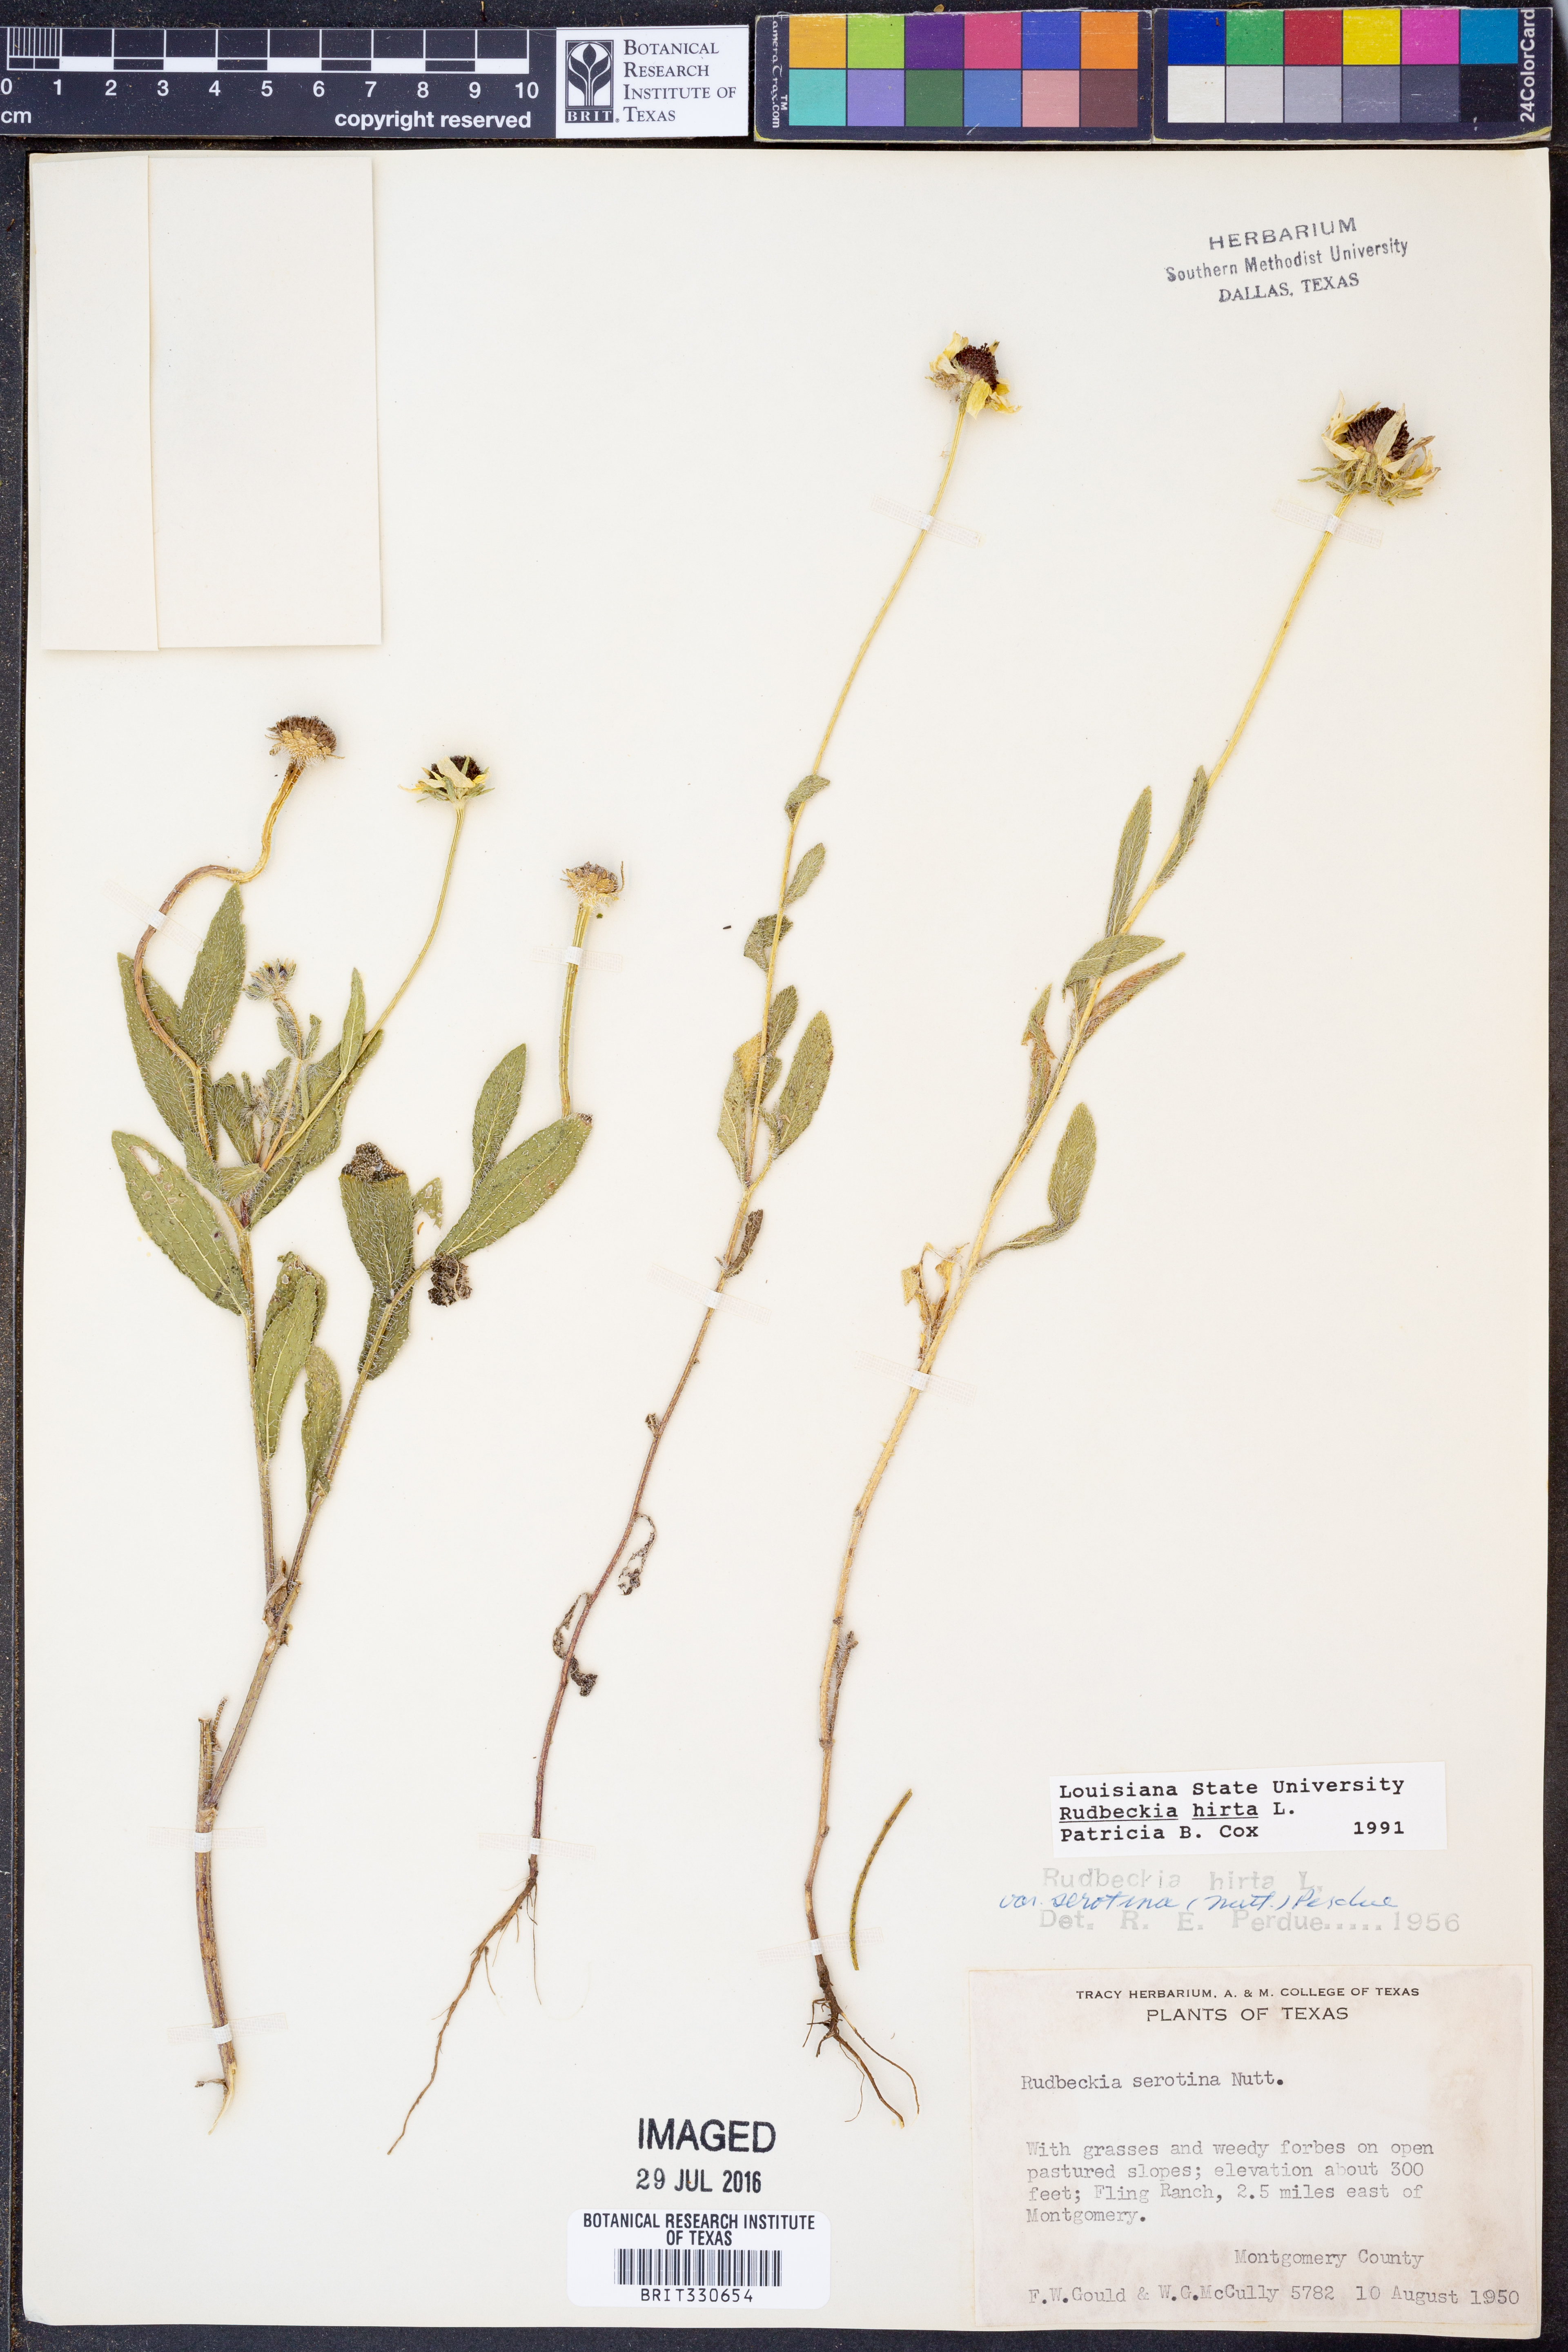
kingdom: Plantae
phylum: Tracheophyta
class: Magnoliopsida
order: Asterales
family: Asteraceae
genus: Rudbeckia
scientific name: Rudbeckia hirta
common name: Black-eyed-susan
